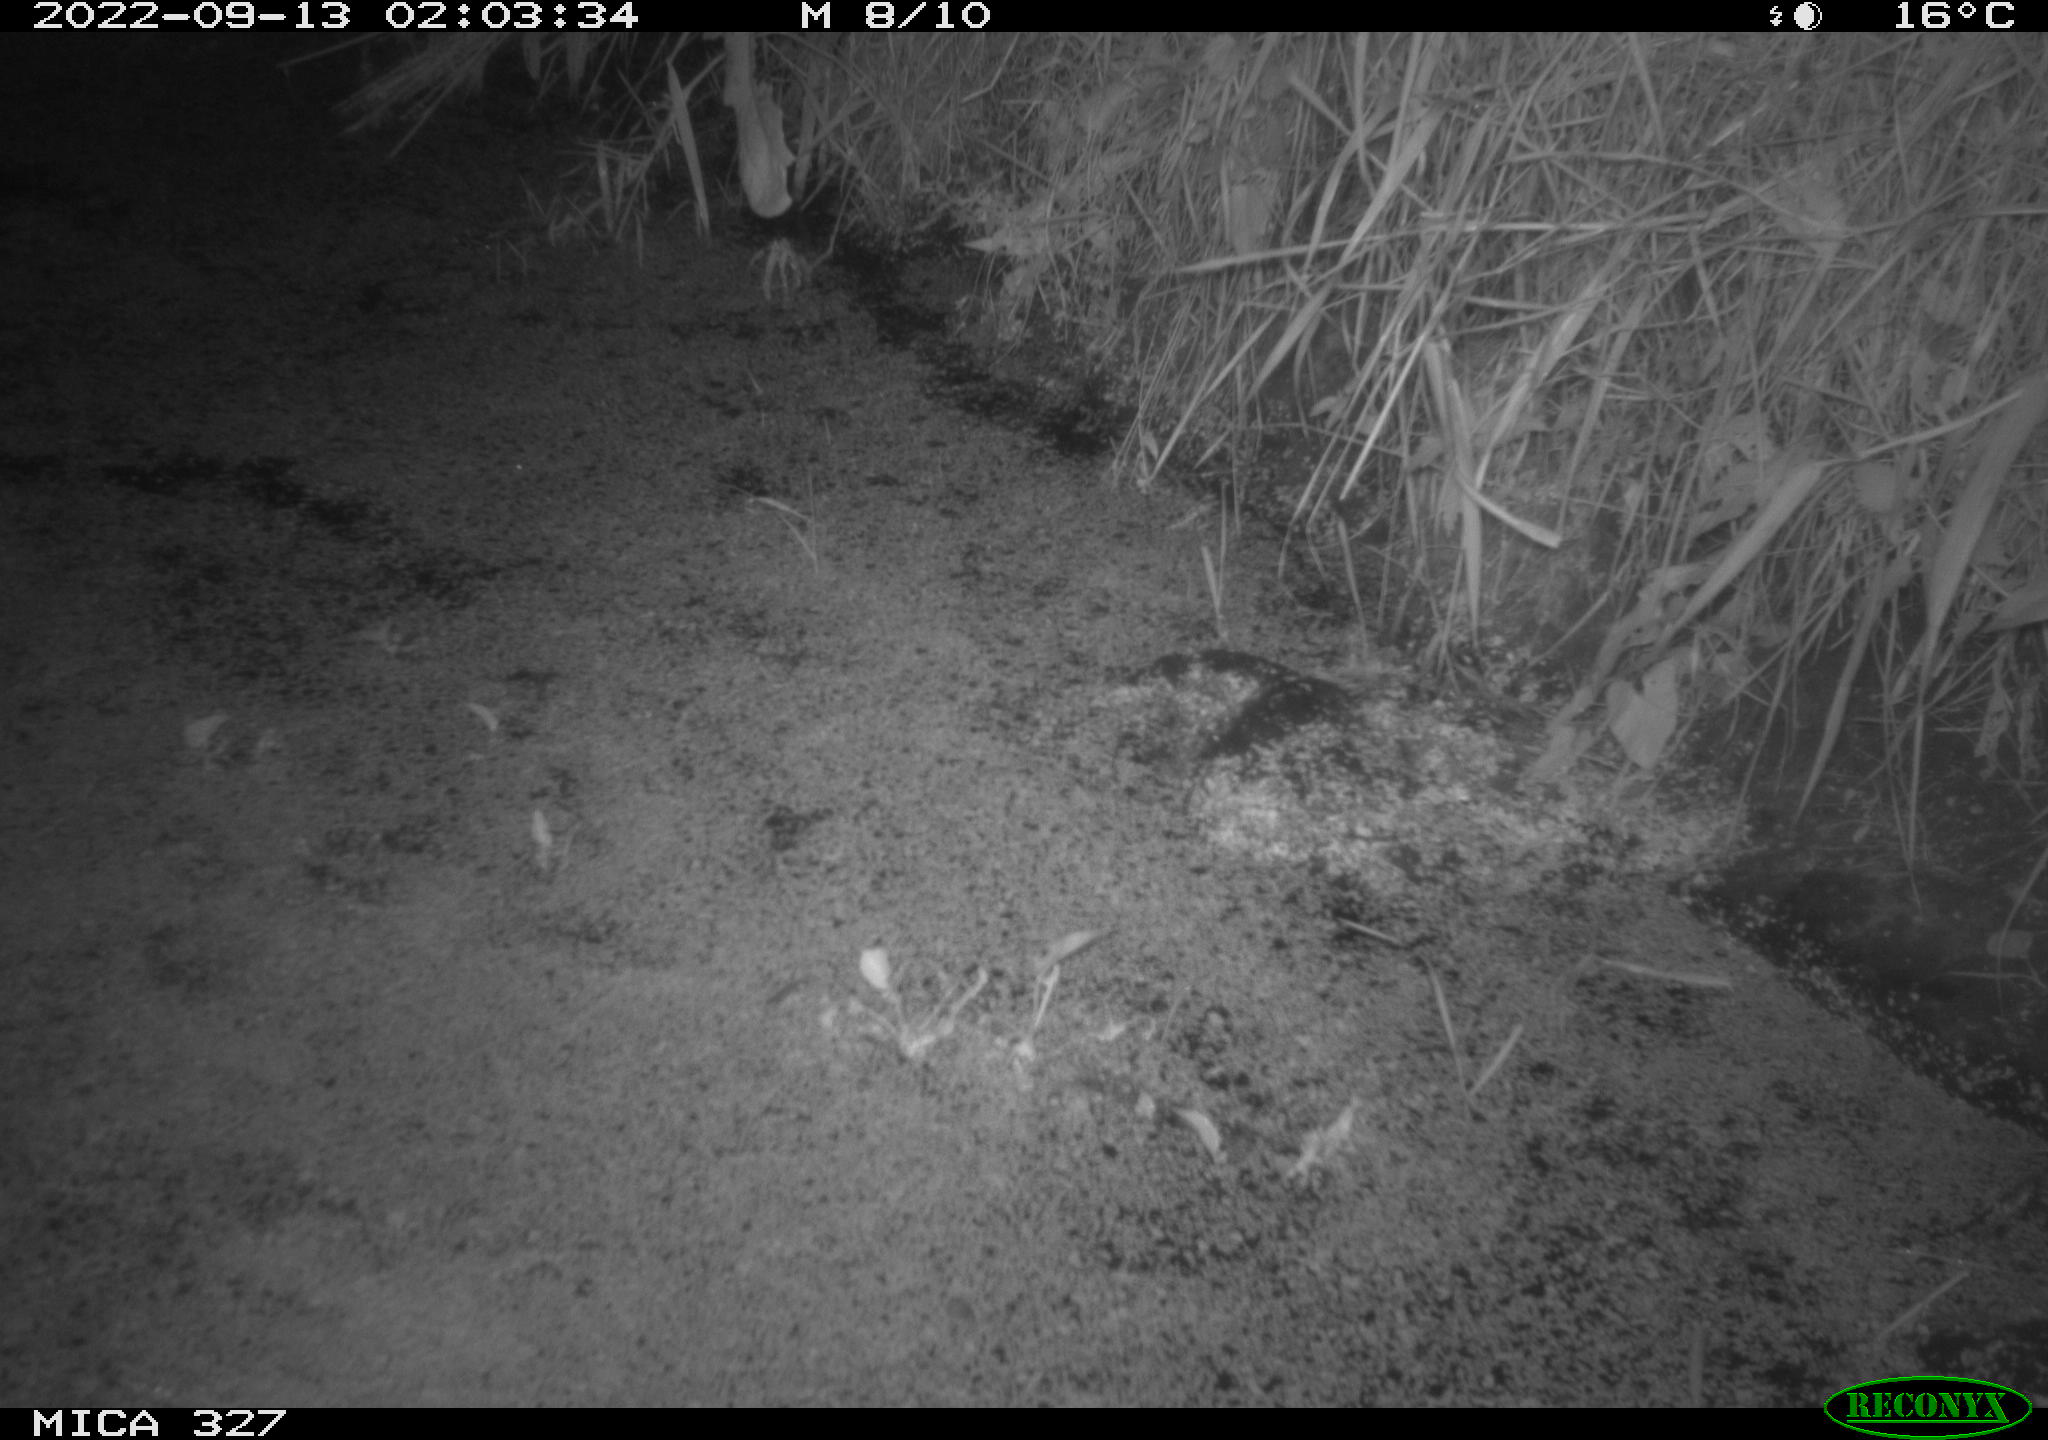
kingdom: Animalia
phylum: Chordata
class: Mammalia
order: Rodentia
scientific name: Rodentia
